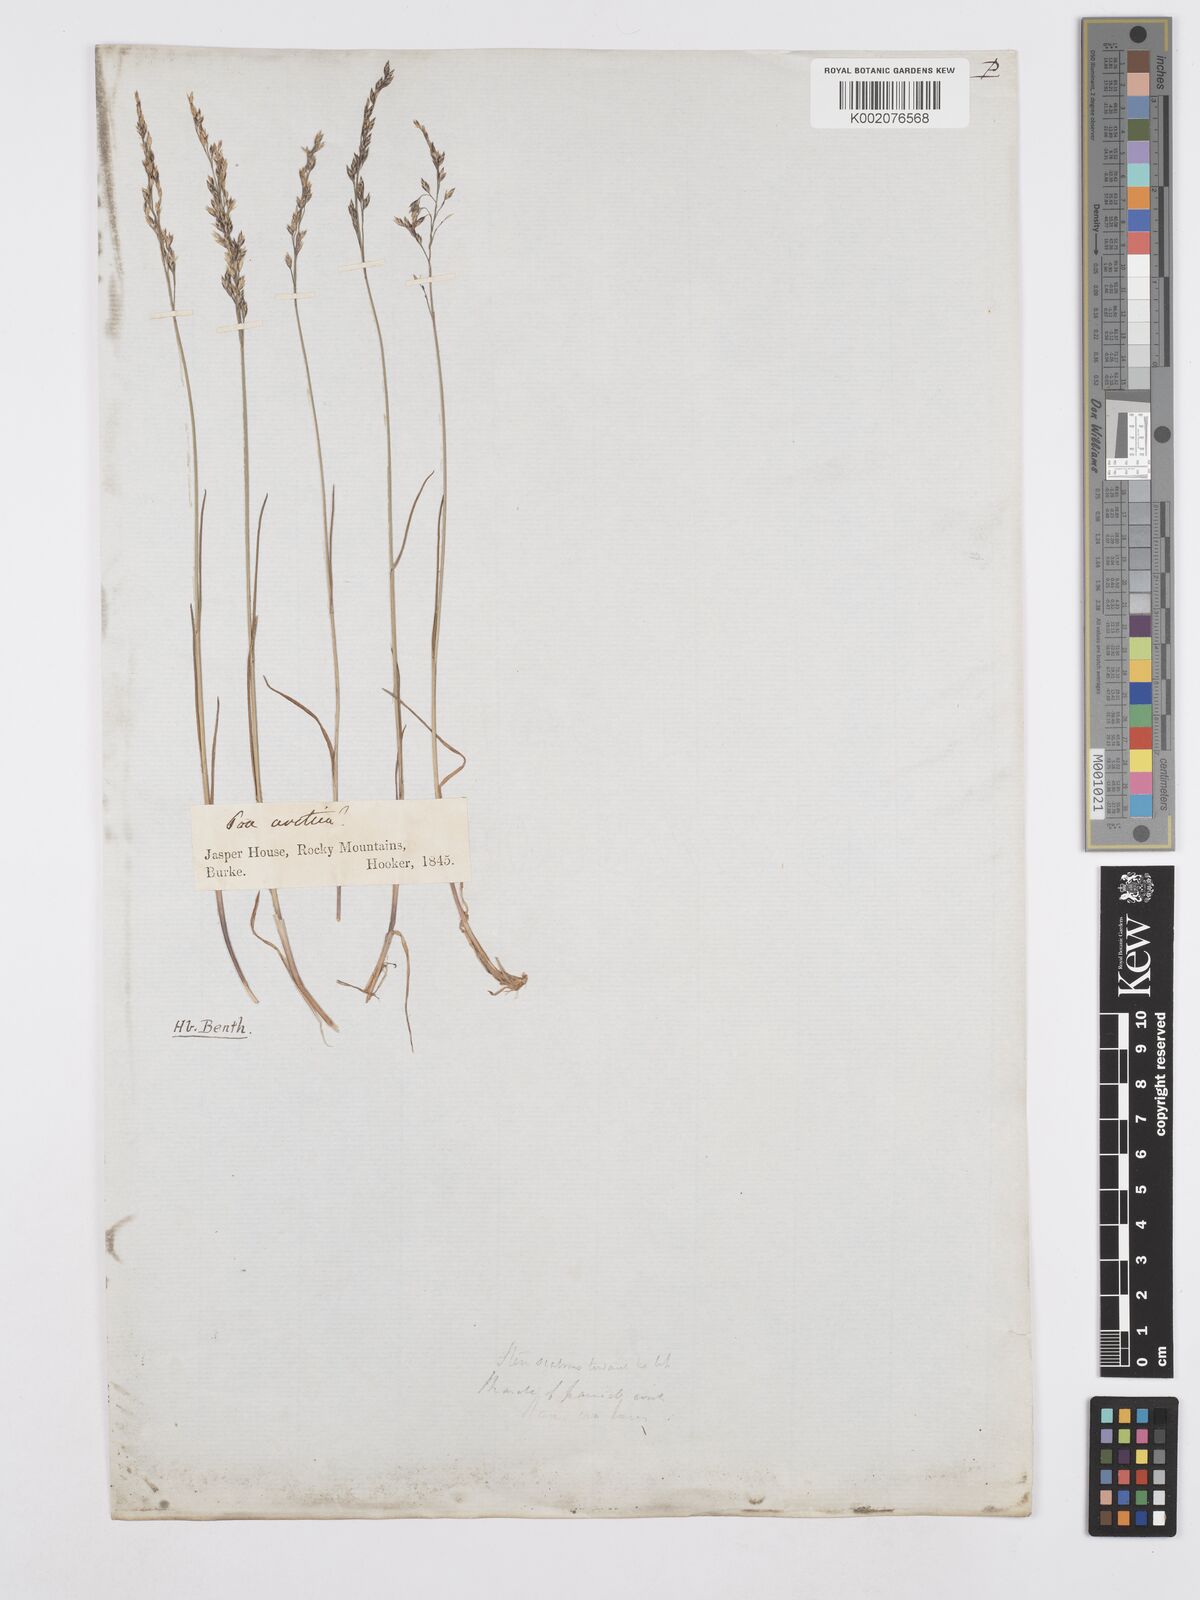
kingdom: Plantae
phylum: Tracheophyta
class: Liliopsida
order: Poales
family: Poaceae
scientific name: Poaceae
